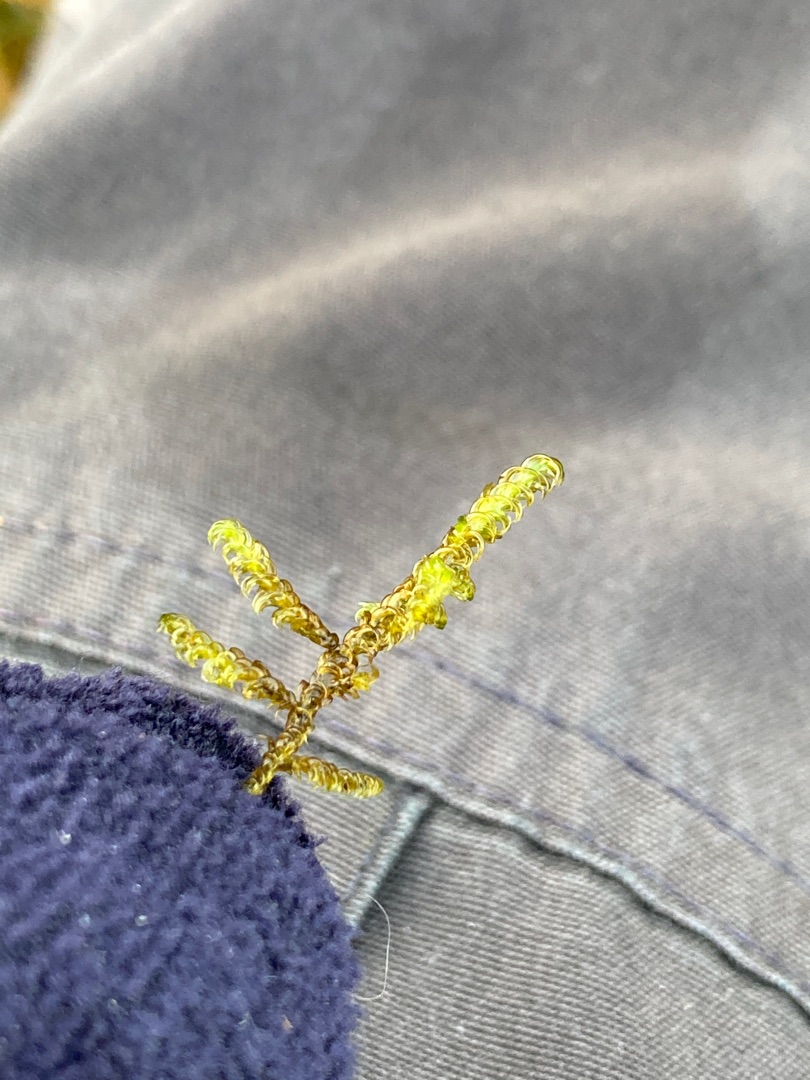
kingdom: Plantae
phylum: Bryophyta
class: Bryopsida
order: Hypnales
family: Scorpidiaceae
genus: Scorpidium
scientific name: Scorpidium cossonii
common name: Grøn krumblad
